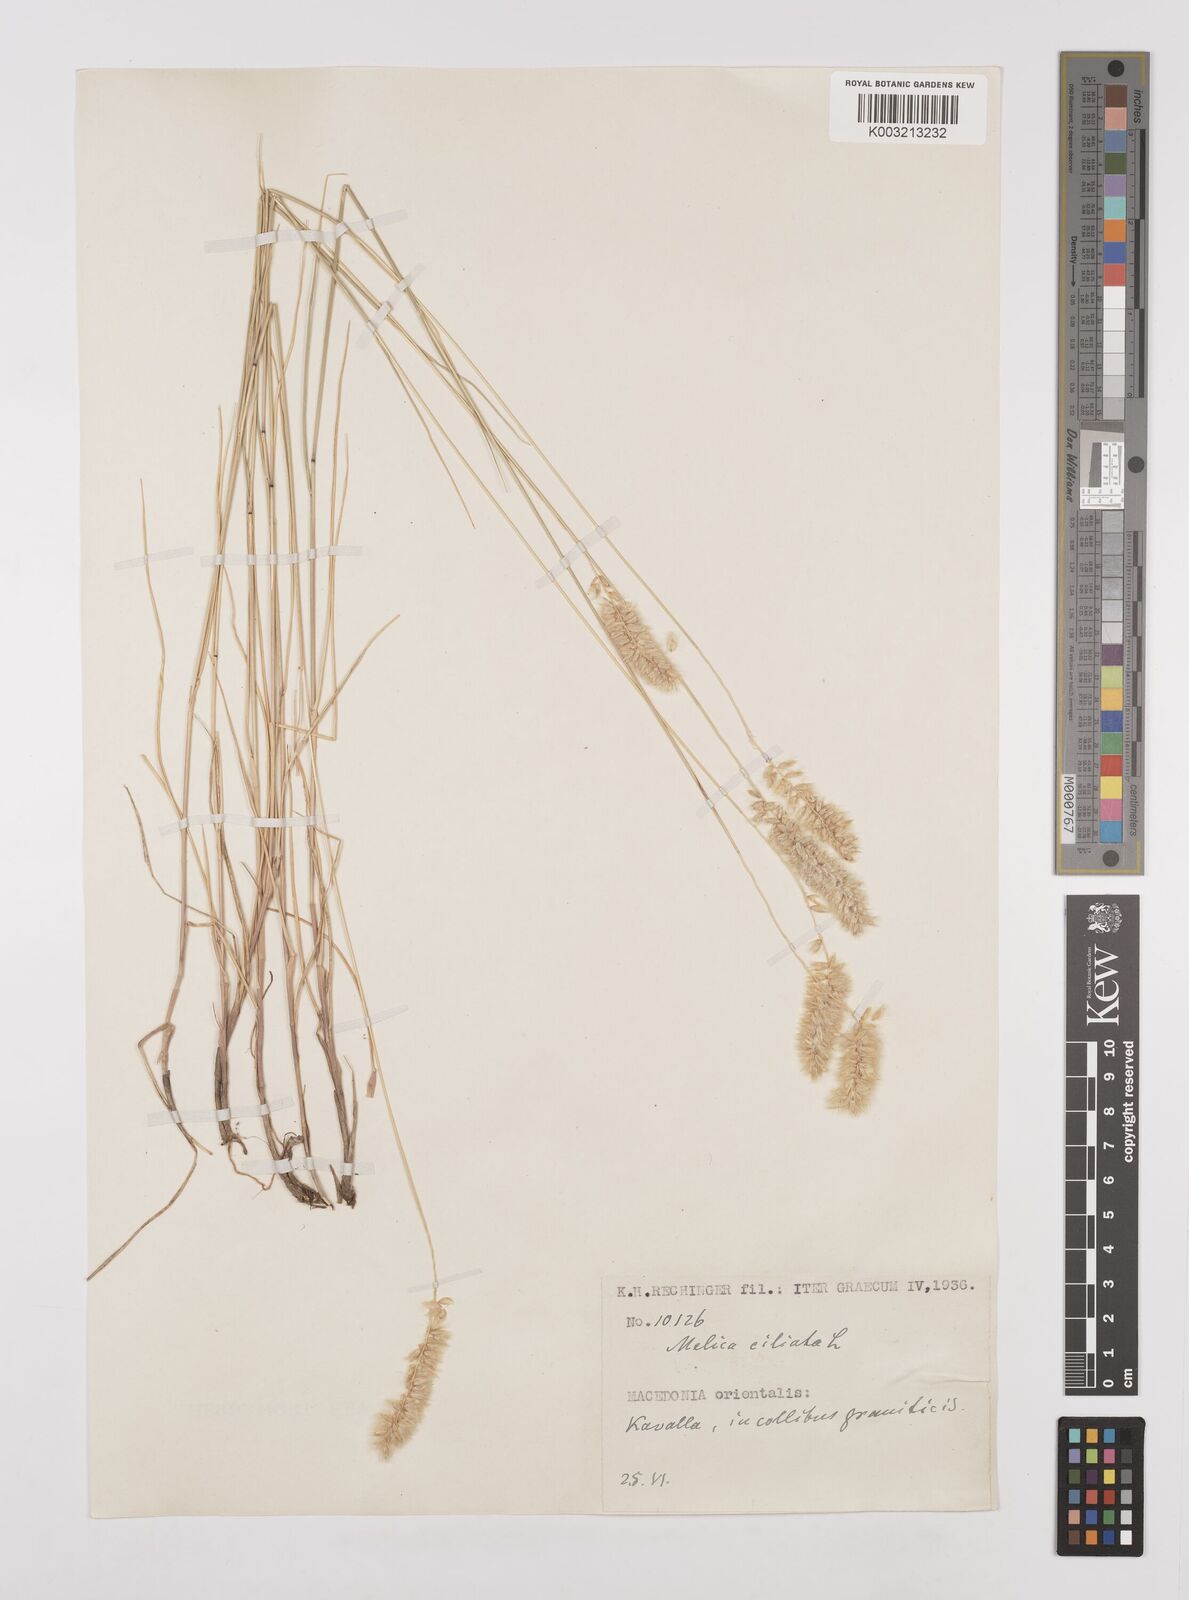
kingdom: Plantae
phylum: Tracheophyta
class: Liliopsida
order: Poales
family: Poaceae
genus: Melica
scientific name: Melica ciliata
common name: Hairy melicgrass
